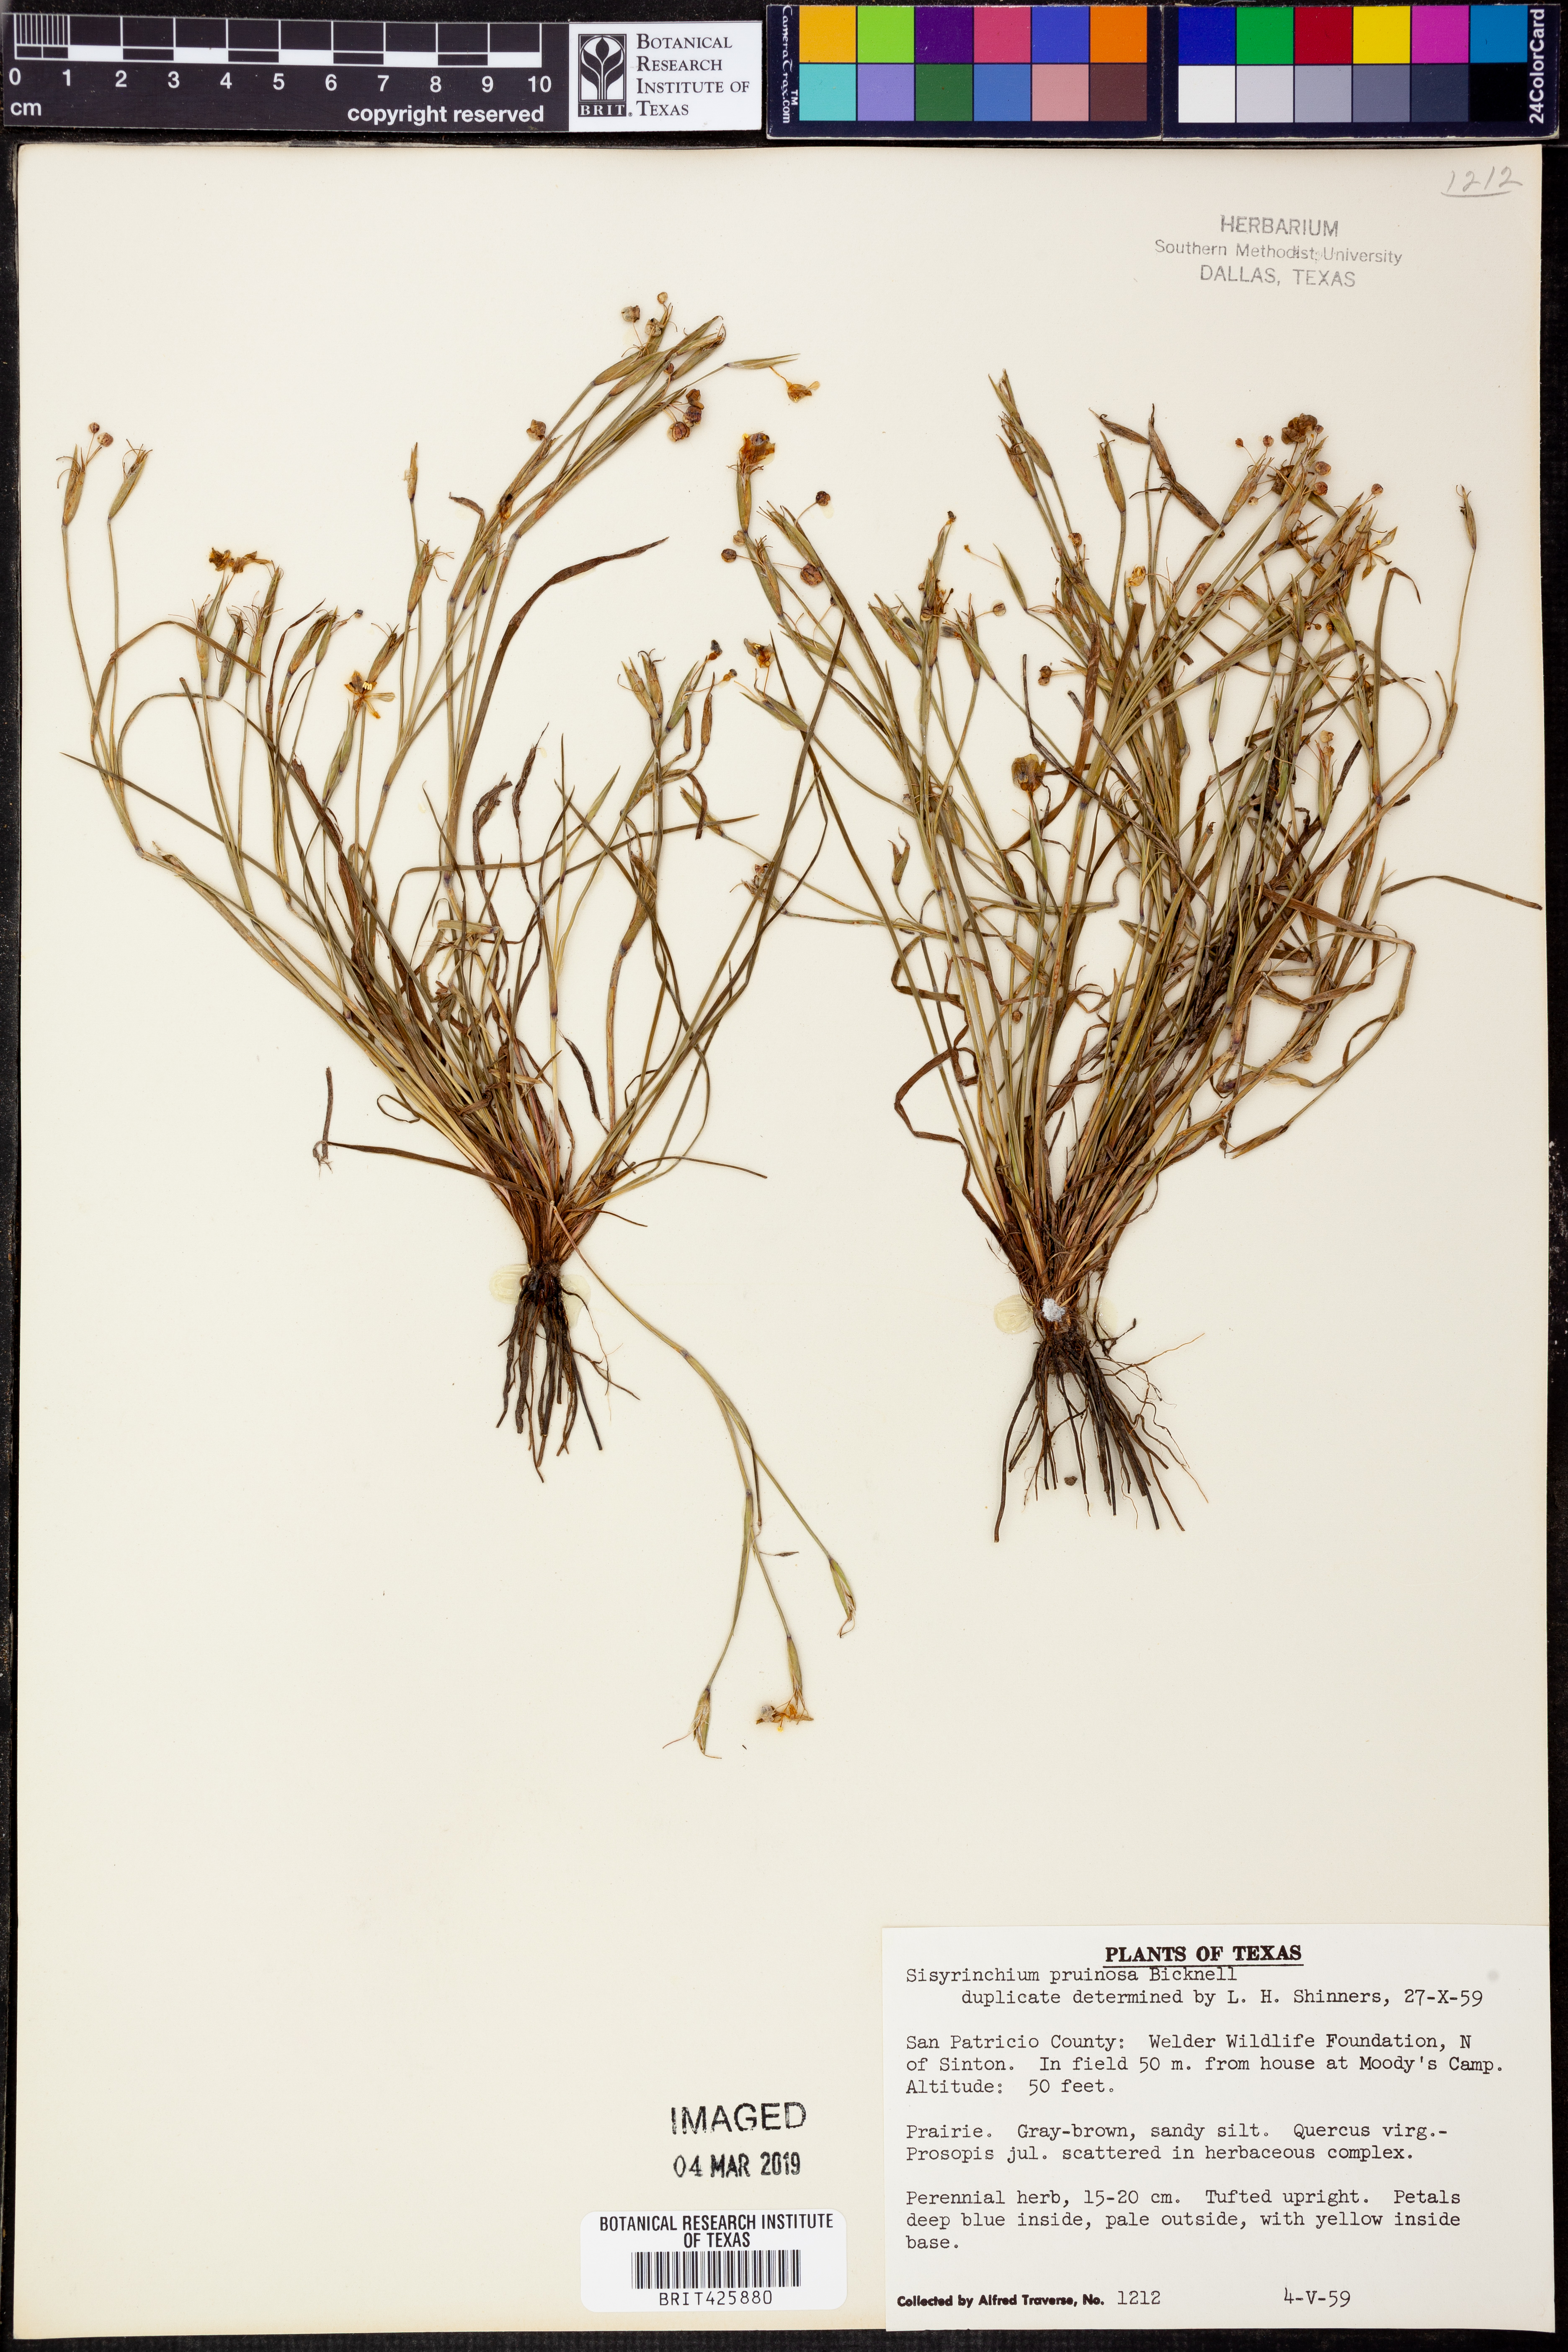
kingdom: Plantae
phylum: Tracheophyta
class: Liliopsida
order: Asparagales
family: Iridaceae
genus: Sisyrinchium
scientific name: Sisyrinchium pruinosum
